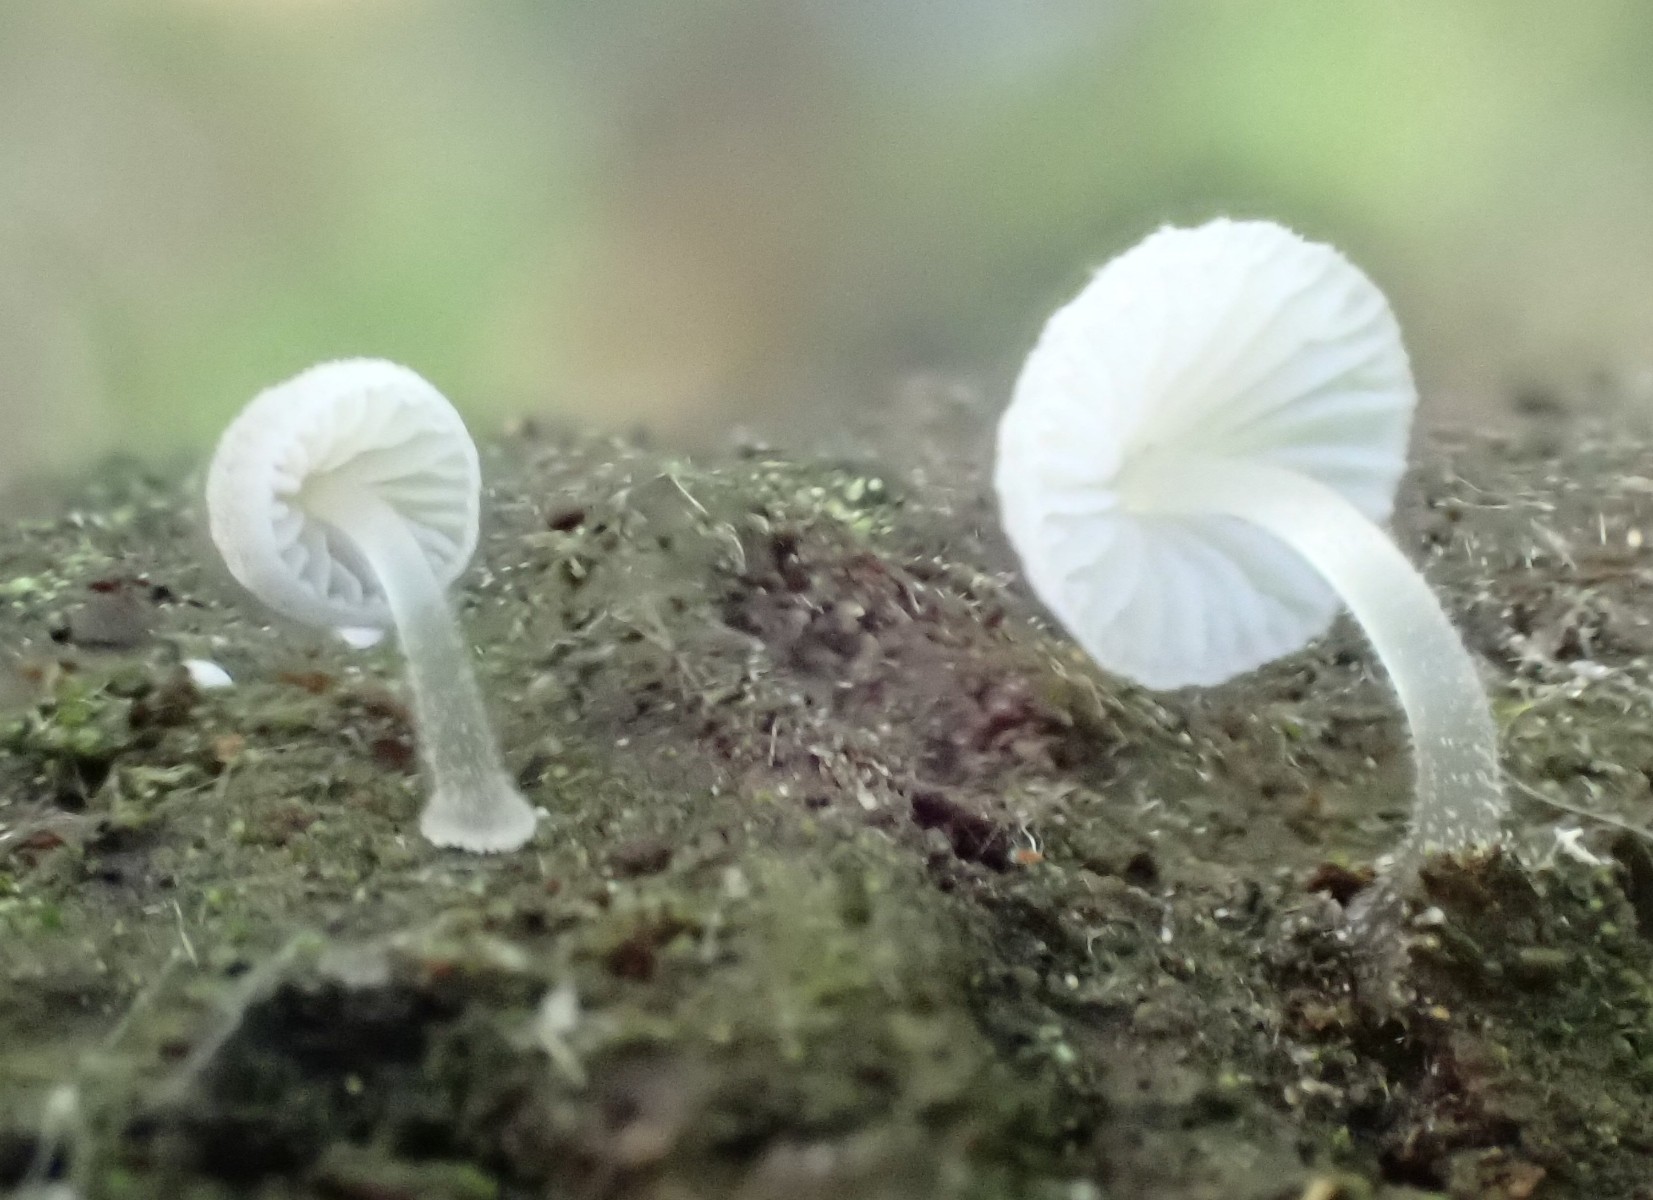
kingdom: Fungi
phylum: Basidiomycota
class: Agaricomycetes
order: Agaricales
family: Mycenaceae
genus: Mycena
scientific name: Mycena tenerrima
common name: pudret huesvamp
